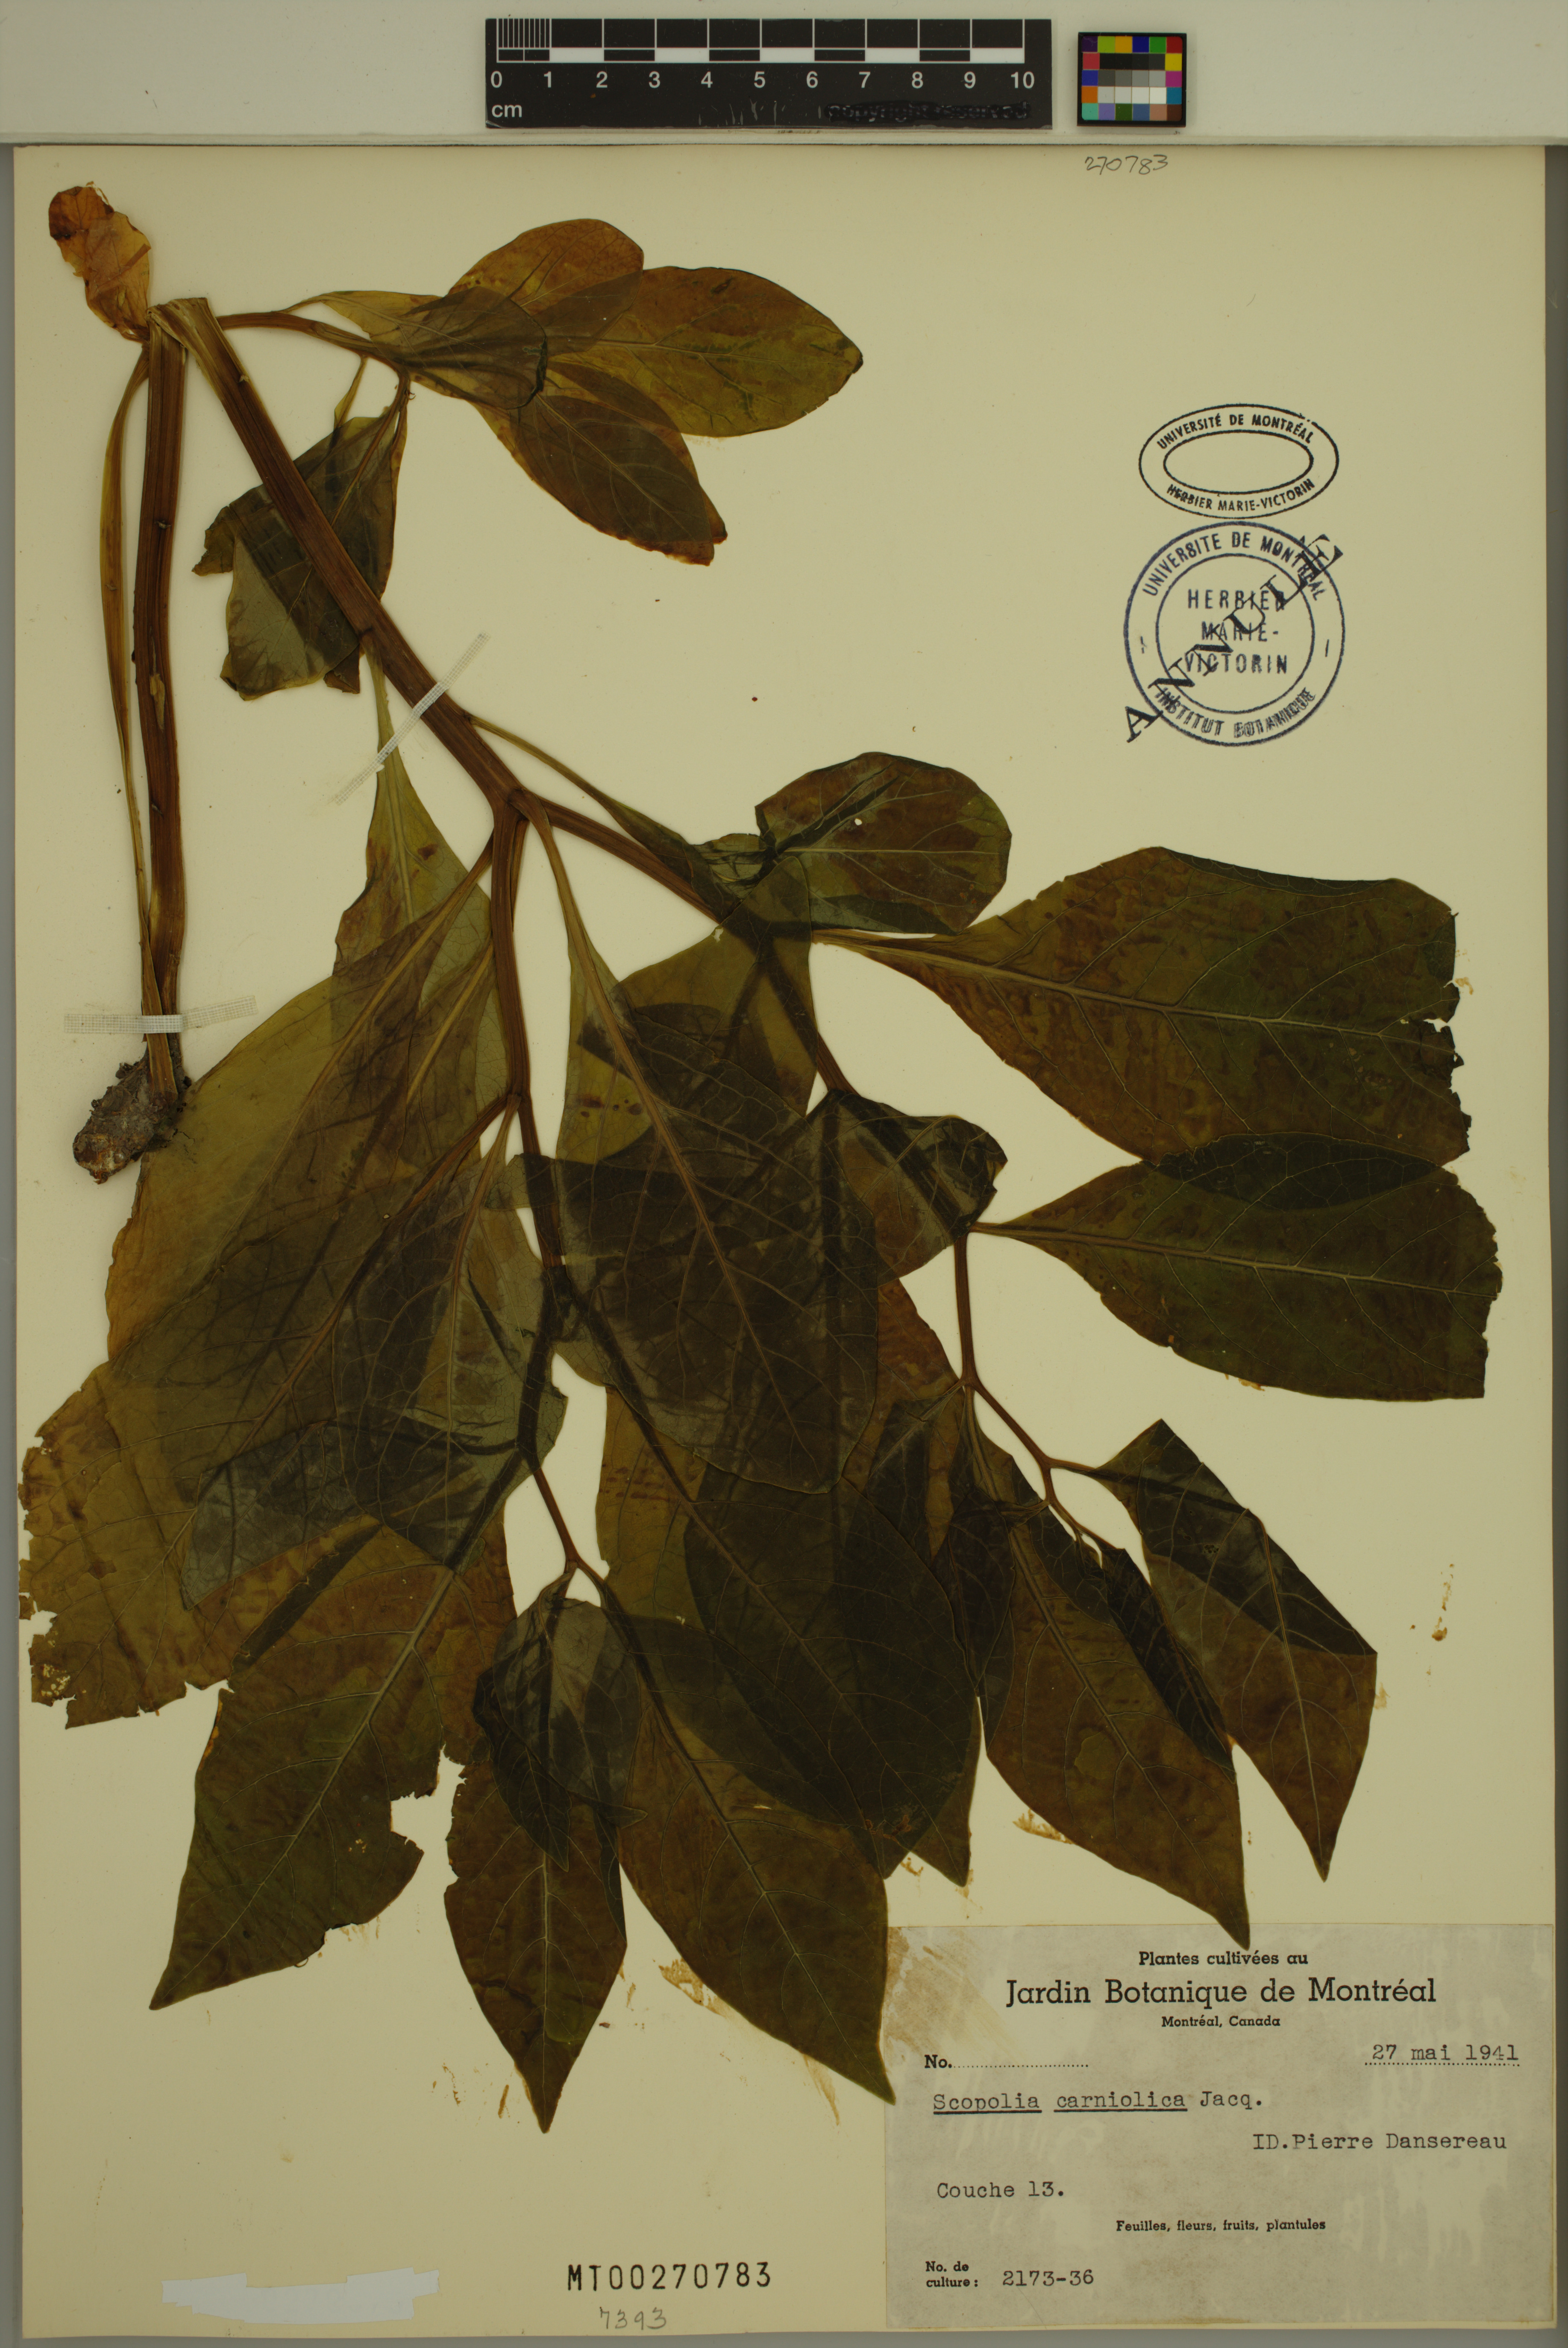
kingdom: Plantae
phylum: Tracheophyta
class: Magnoliopsida
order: Solanales
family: Solanaceae
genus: Scopolia
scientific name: Scopolia carniolica
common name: Scopolia
